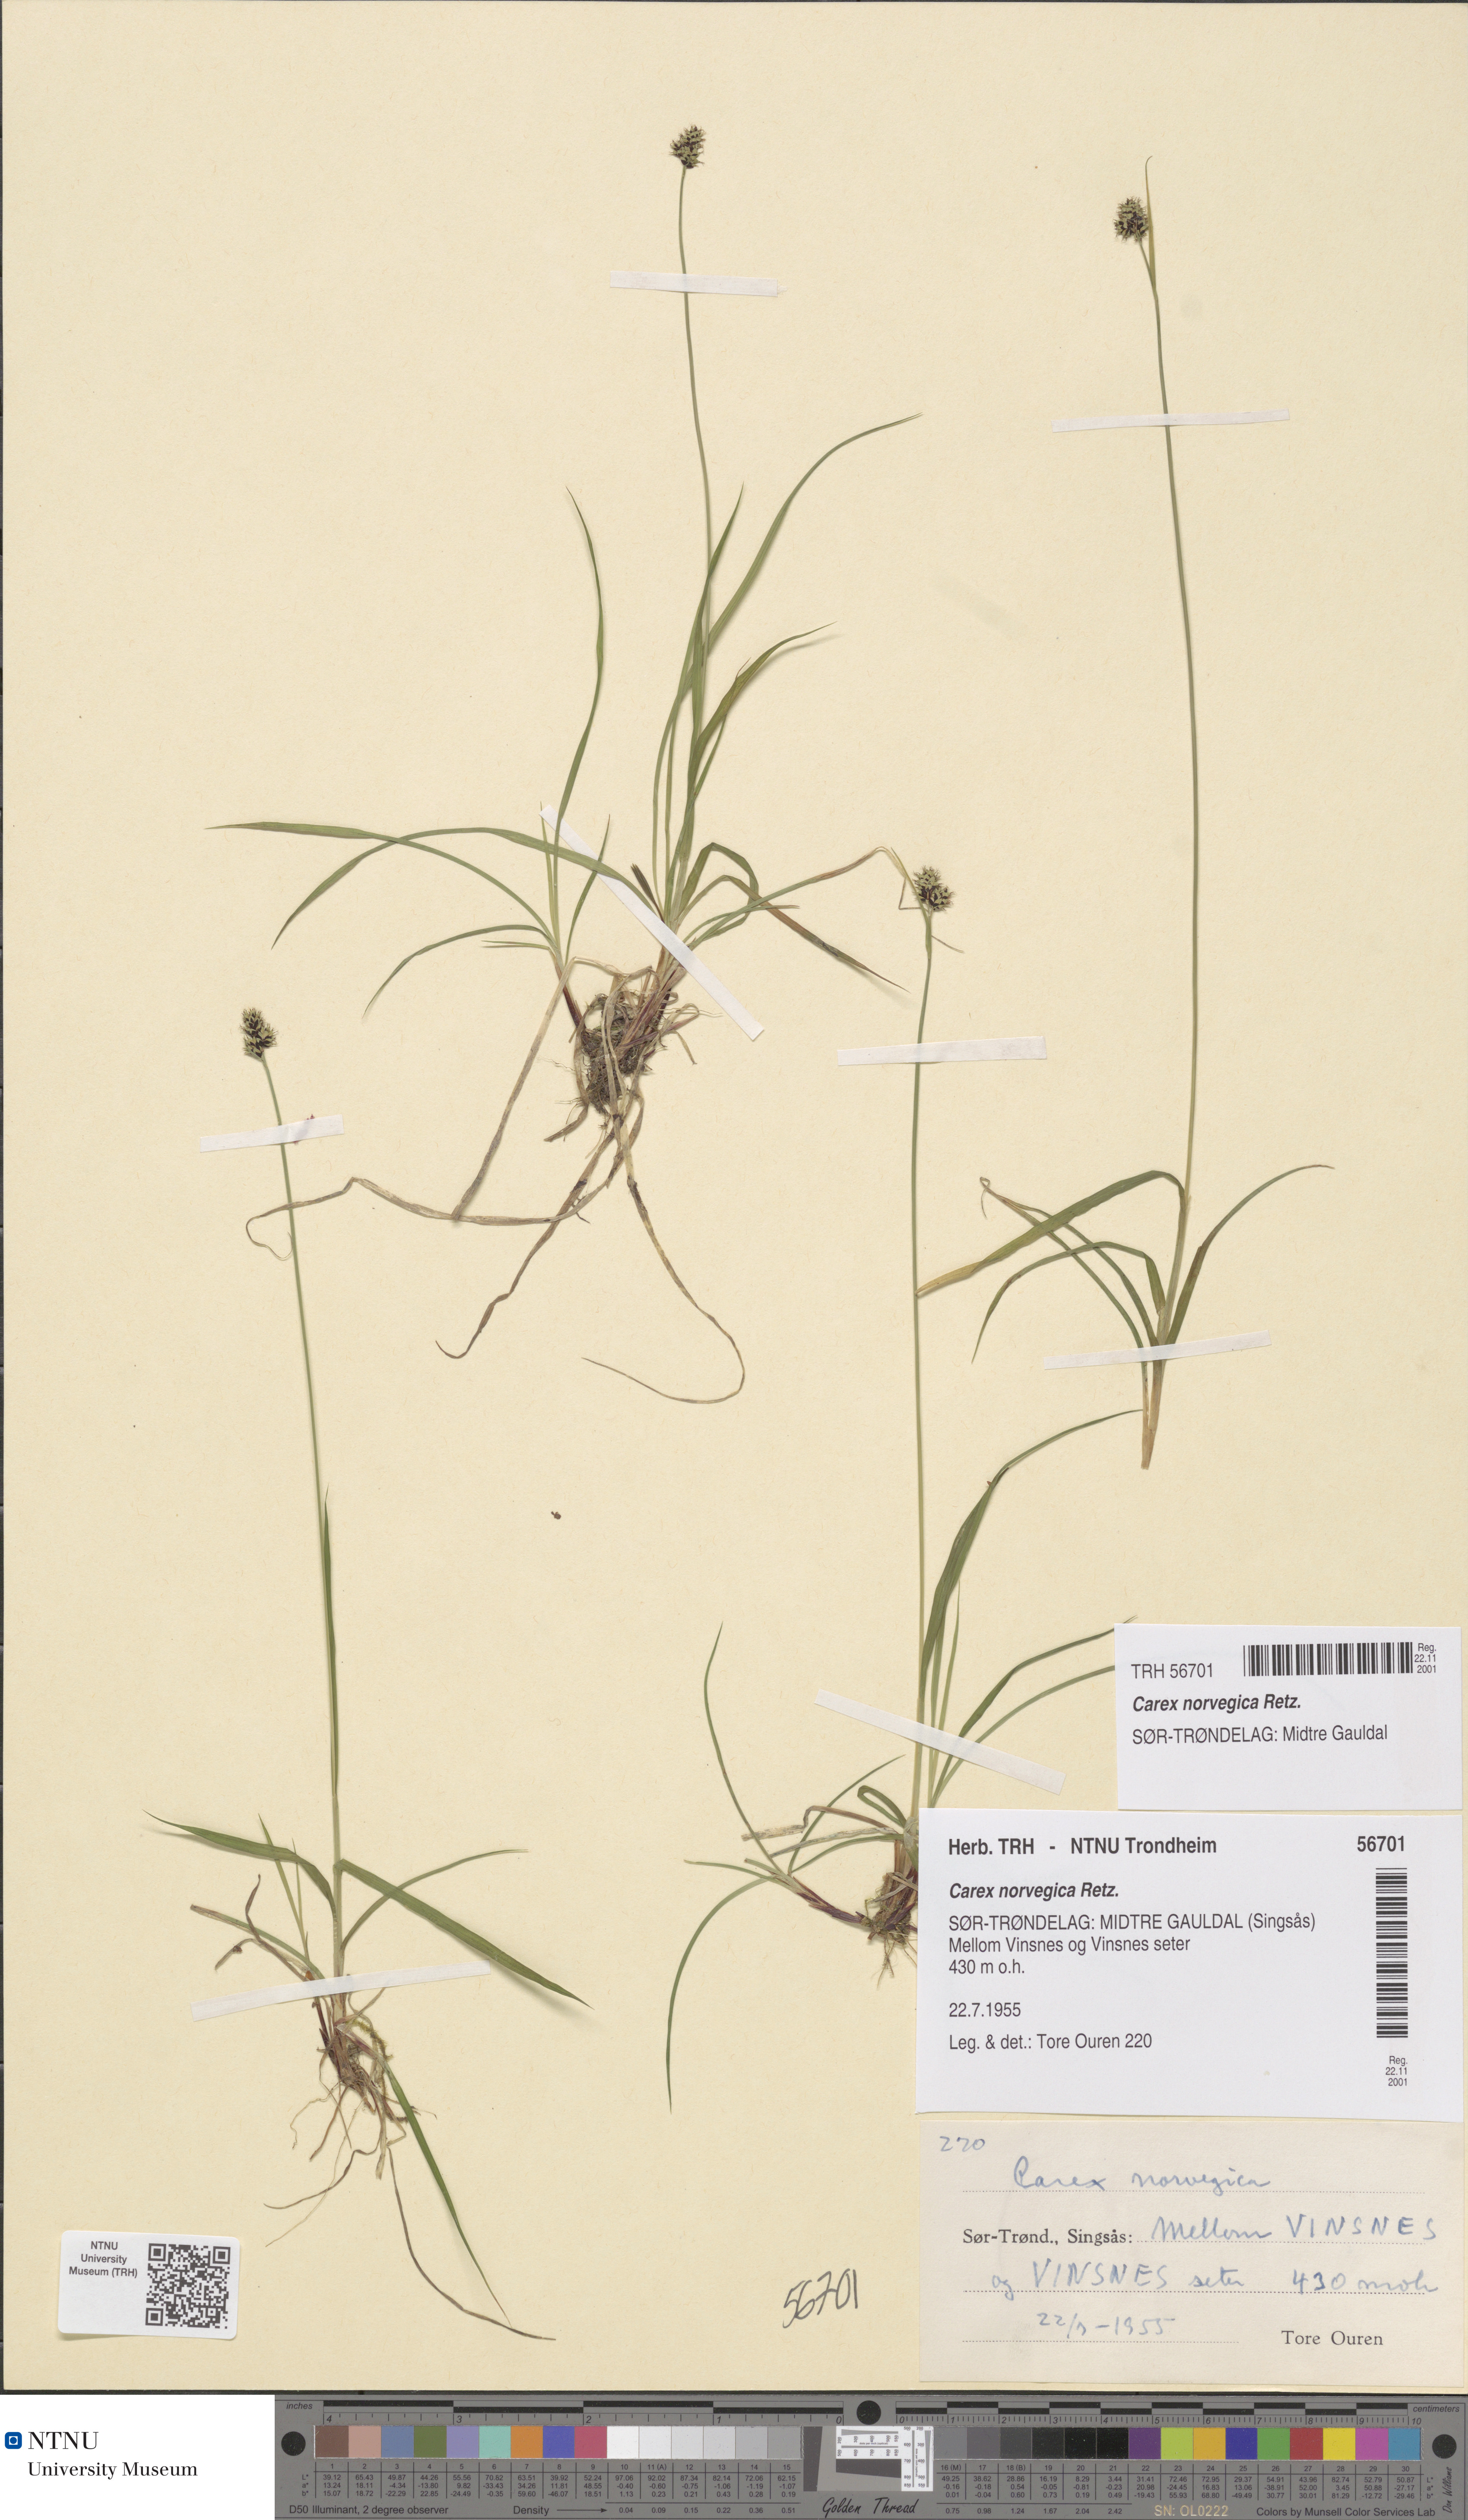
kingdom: Plantae
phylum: Tracheophyta
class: Liliopsida
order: Poales
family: Cyperaceae
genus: Carex
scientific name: Carex norvegica
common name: Close-headed alpine-sedge
